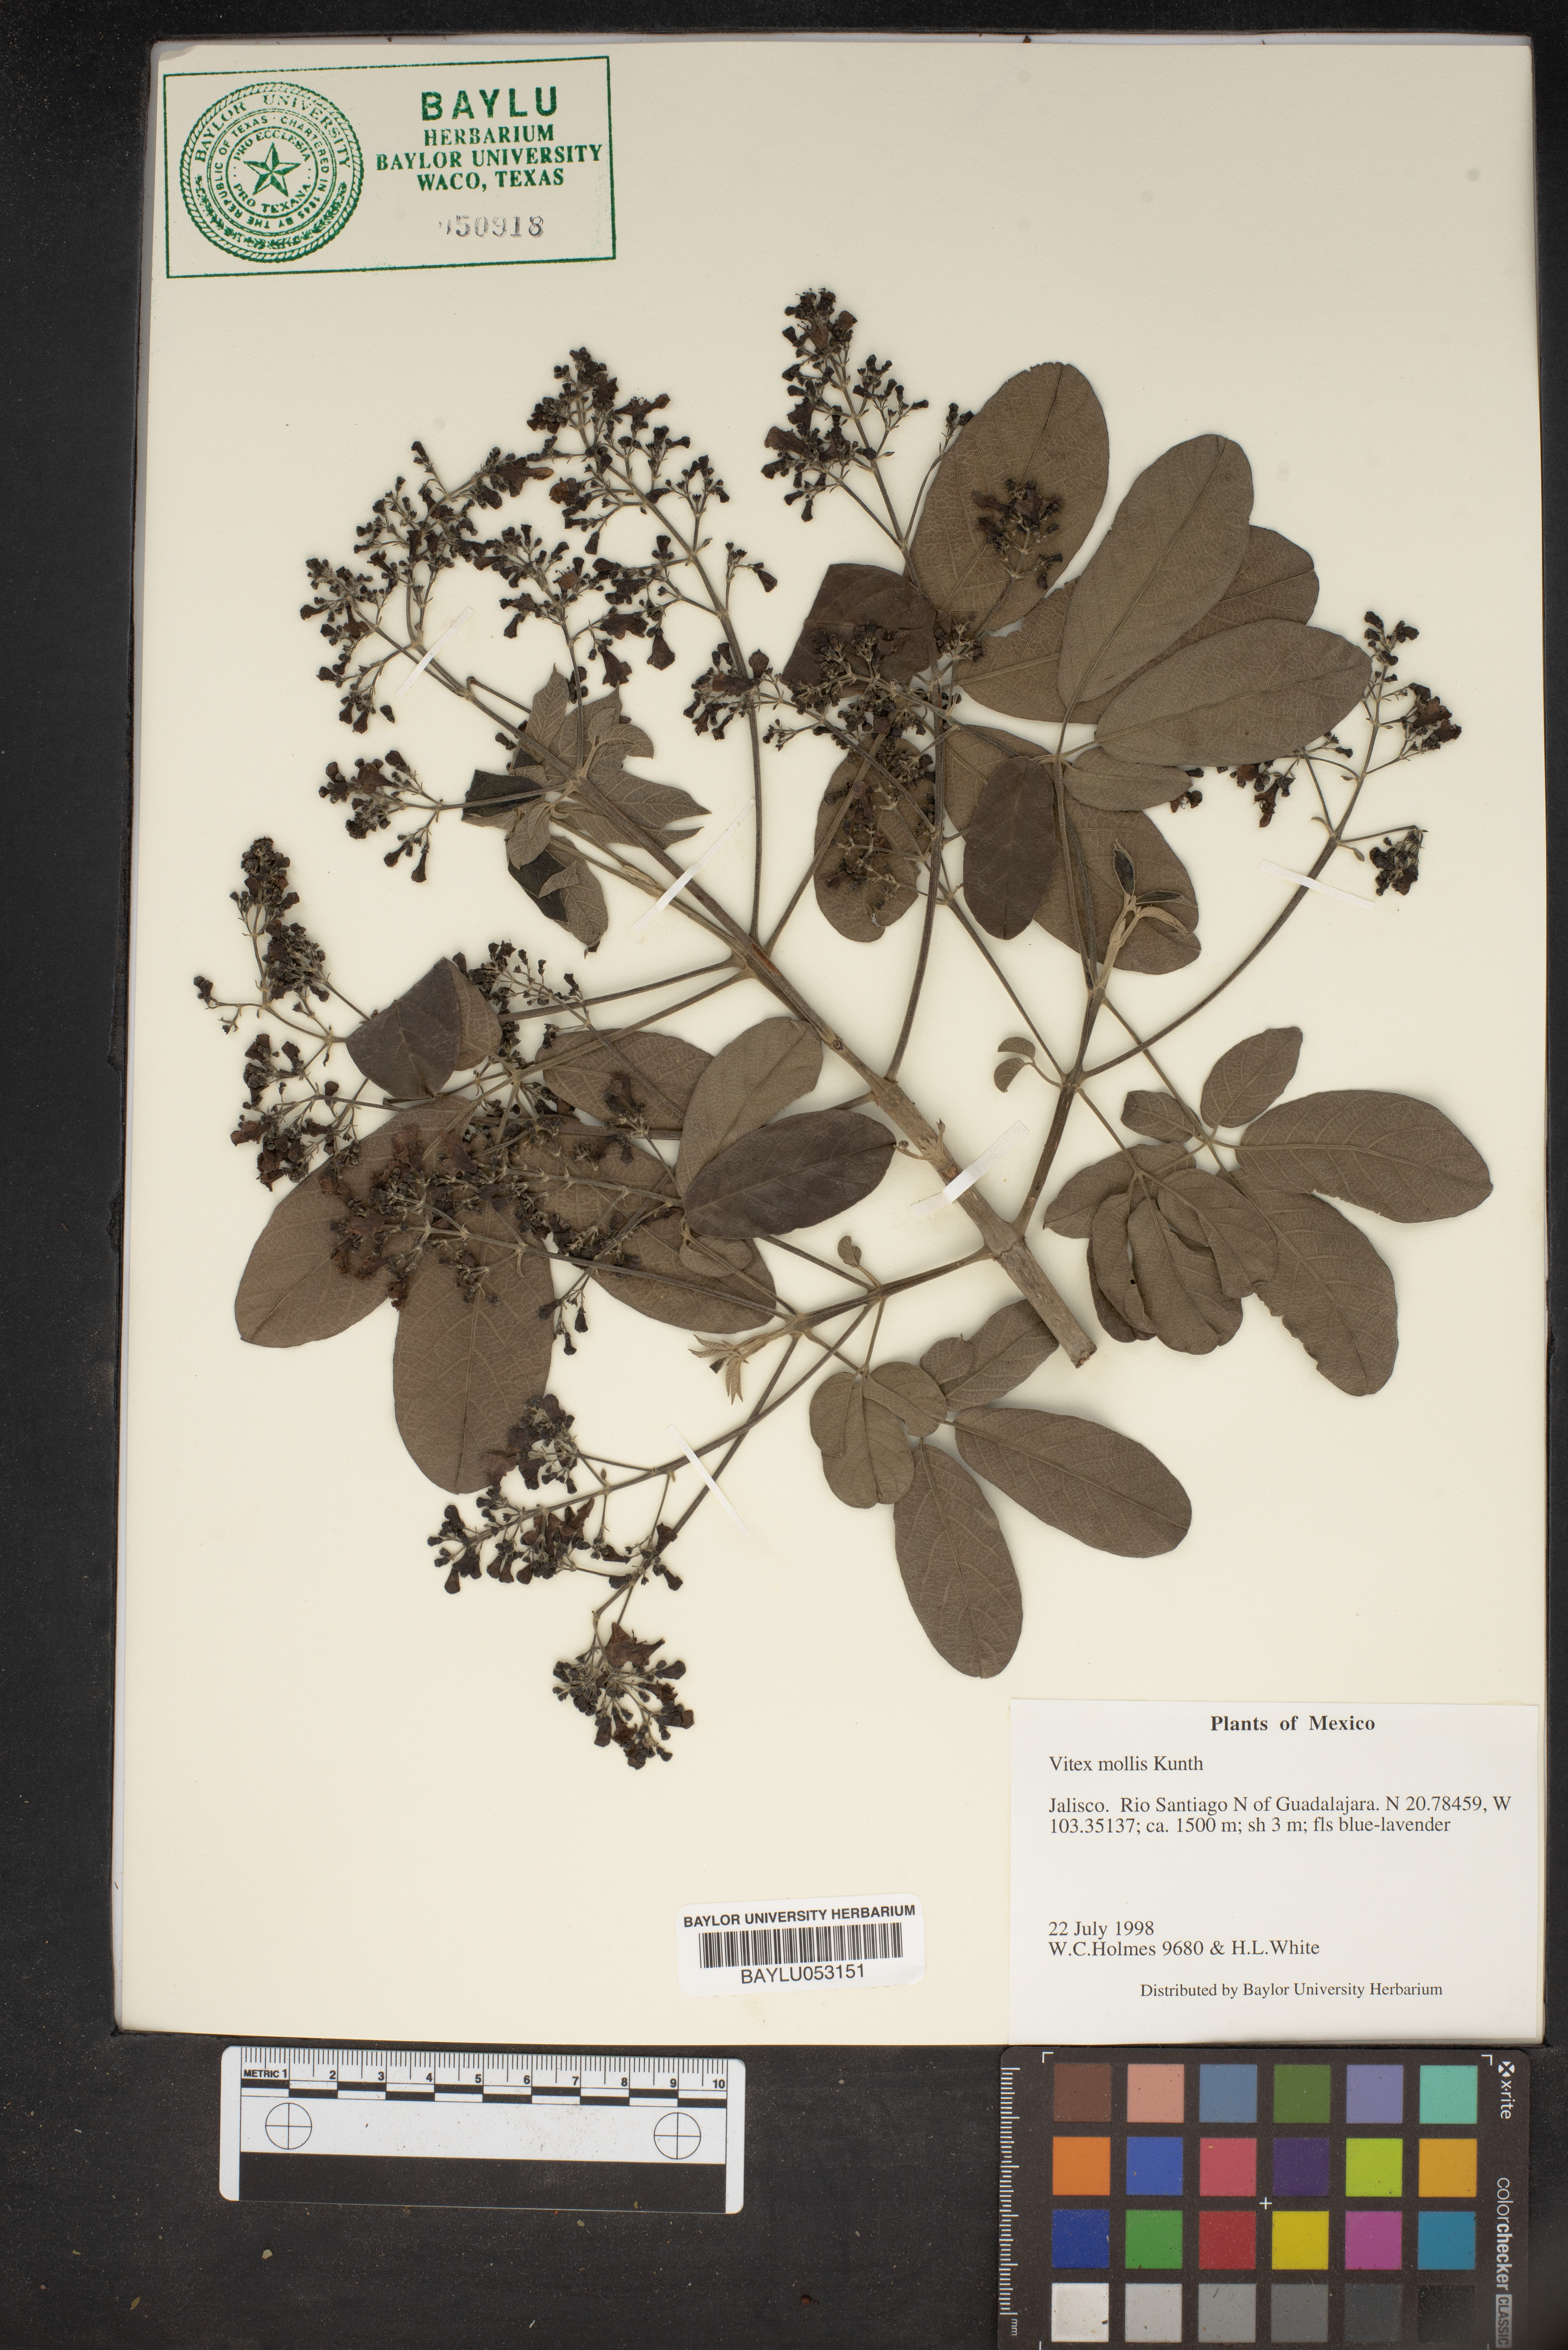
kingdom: Plantae
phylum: Tracheophyta
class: Magnoliopsida
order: Lamiales
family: Lamiaceae
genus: Vitex
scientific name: Vitex mollis
